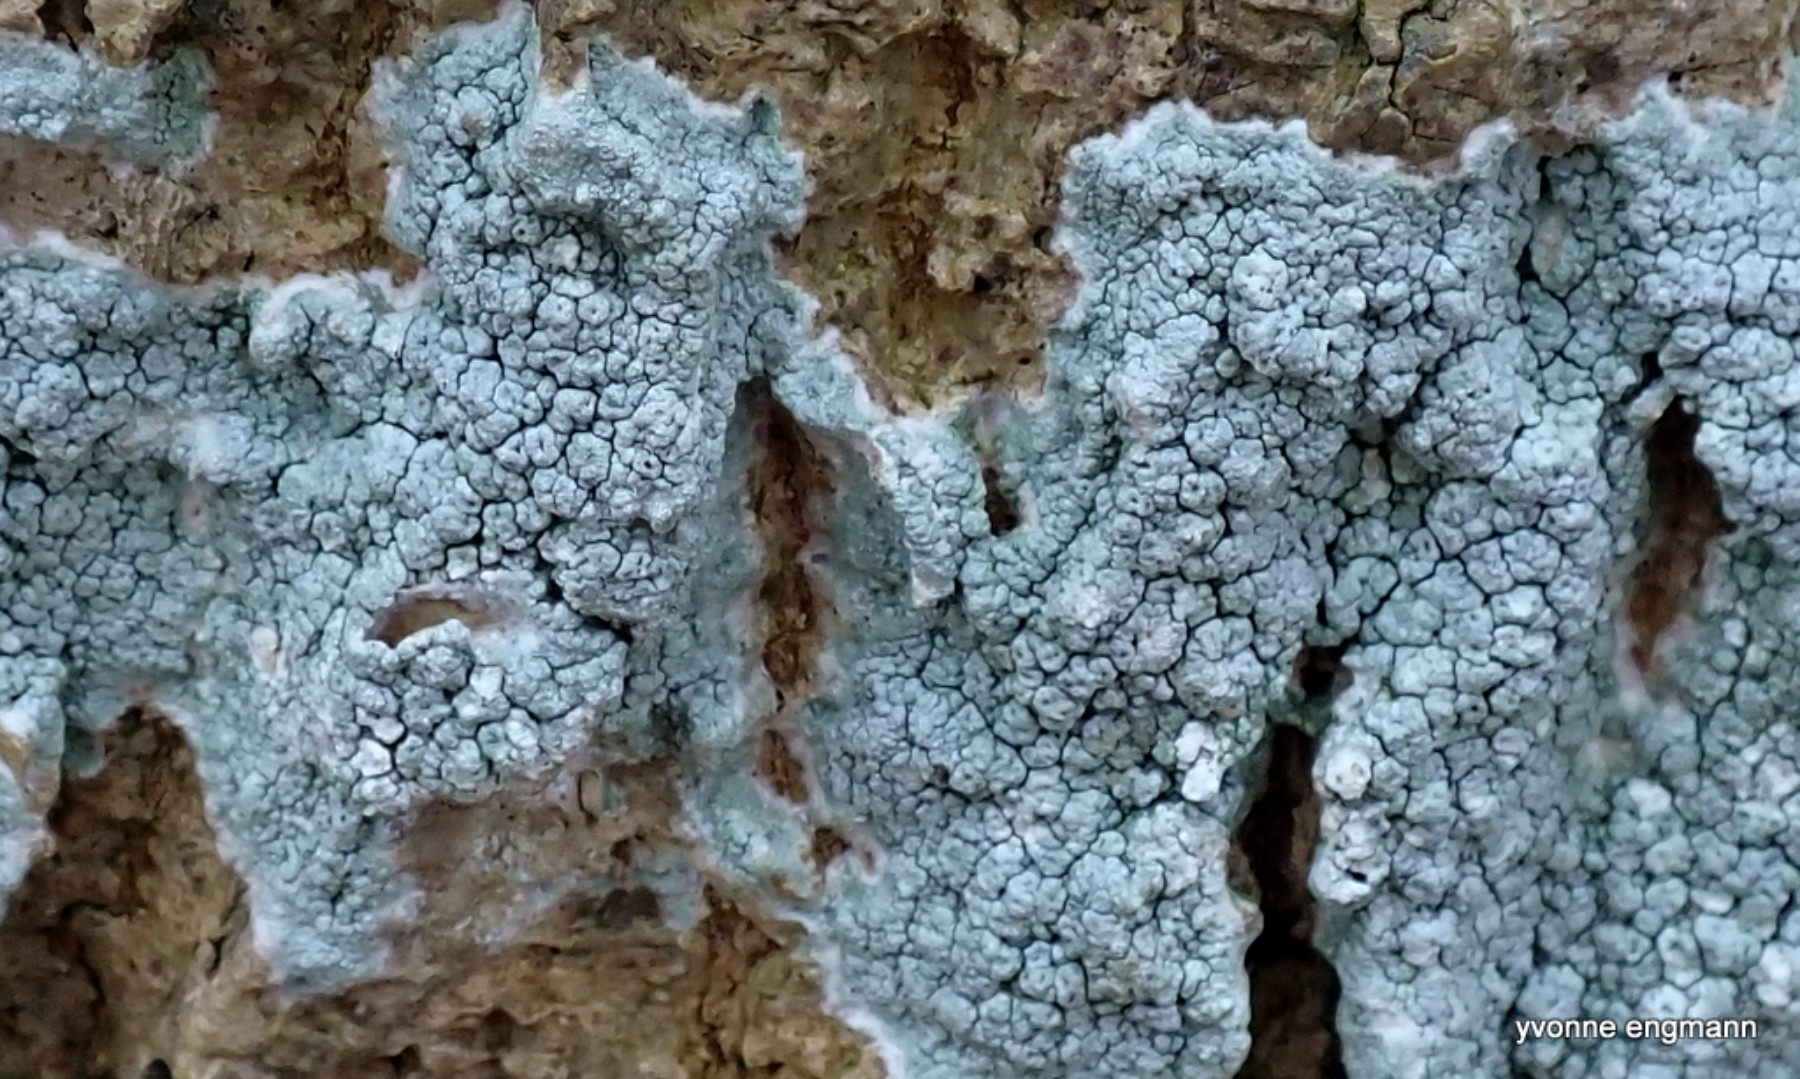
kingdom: Fungi
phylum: Ascomycota
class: Lecanoromycetes
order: Pertusariales
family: Pertusariaceae
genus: Pertusaria
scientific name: Pertusaria pertusa
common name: almindelig prikvortelav
